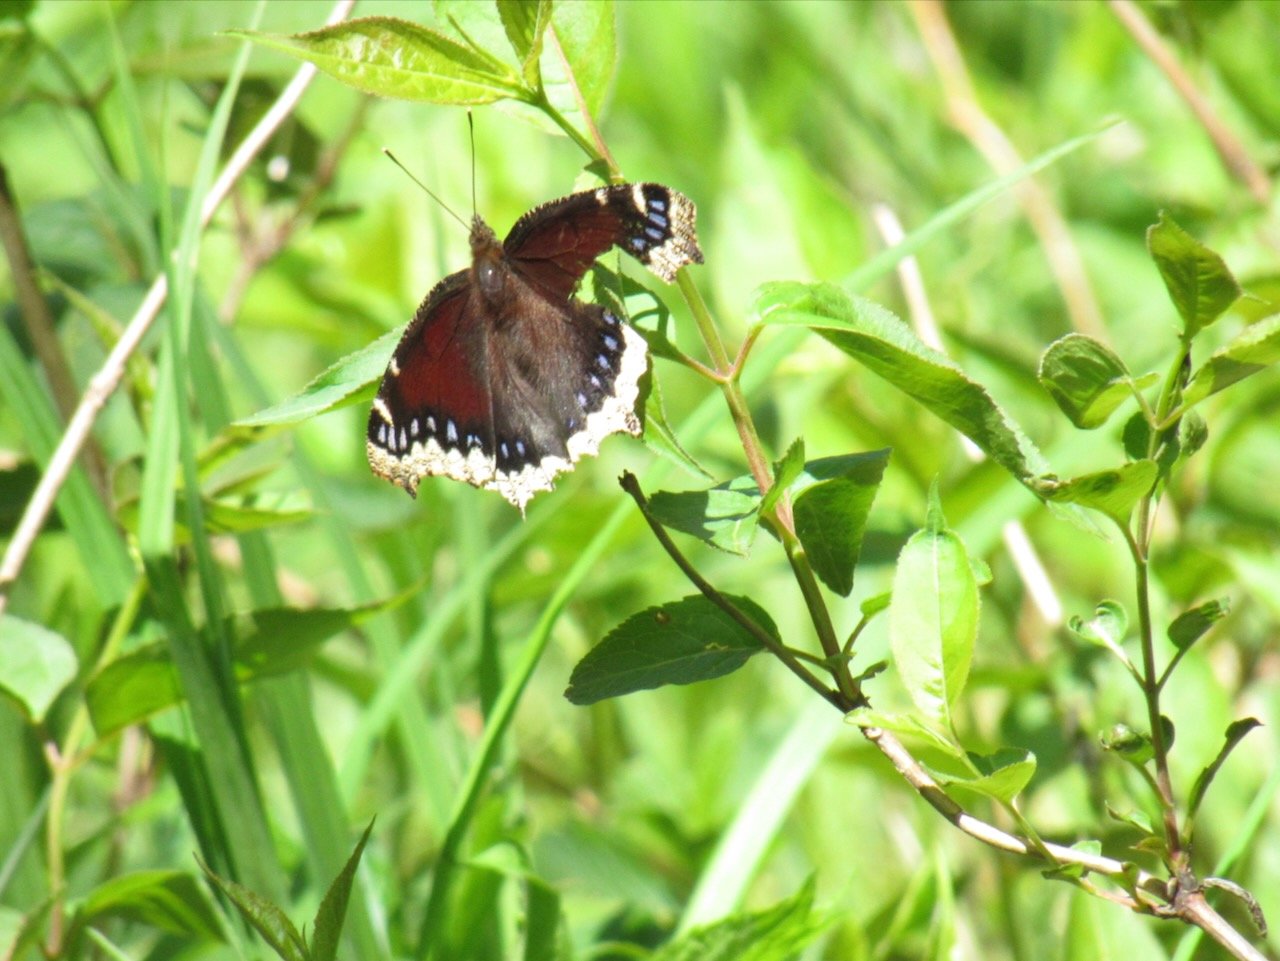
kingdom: Animalia
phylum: Arthropoda
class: Insecta
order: Lepidoptera
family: Nymphalidae
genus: Nymphalis
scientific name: Nymphalis antiopa
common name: Mourning Cloak
